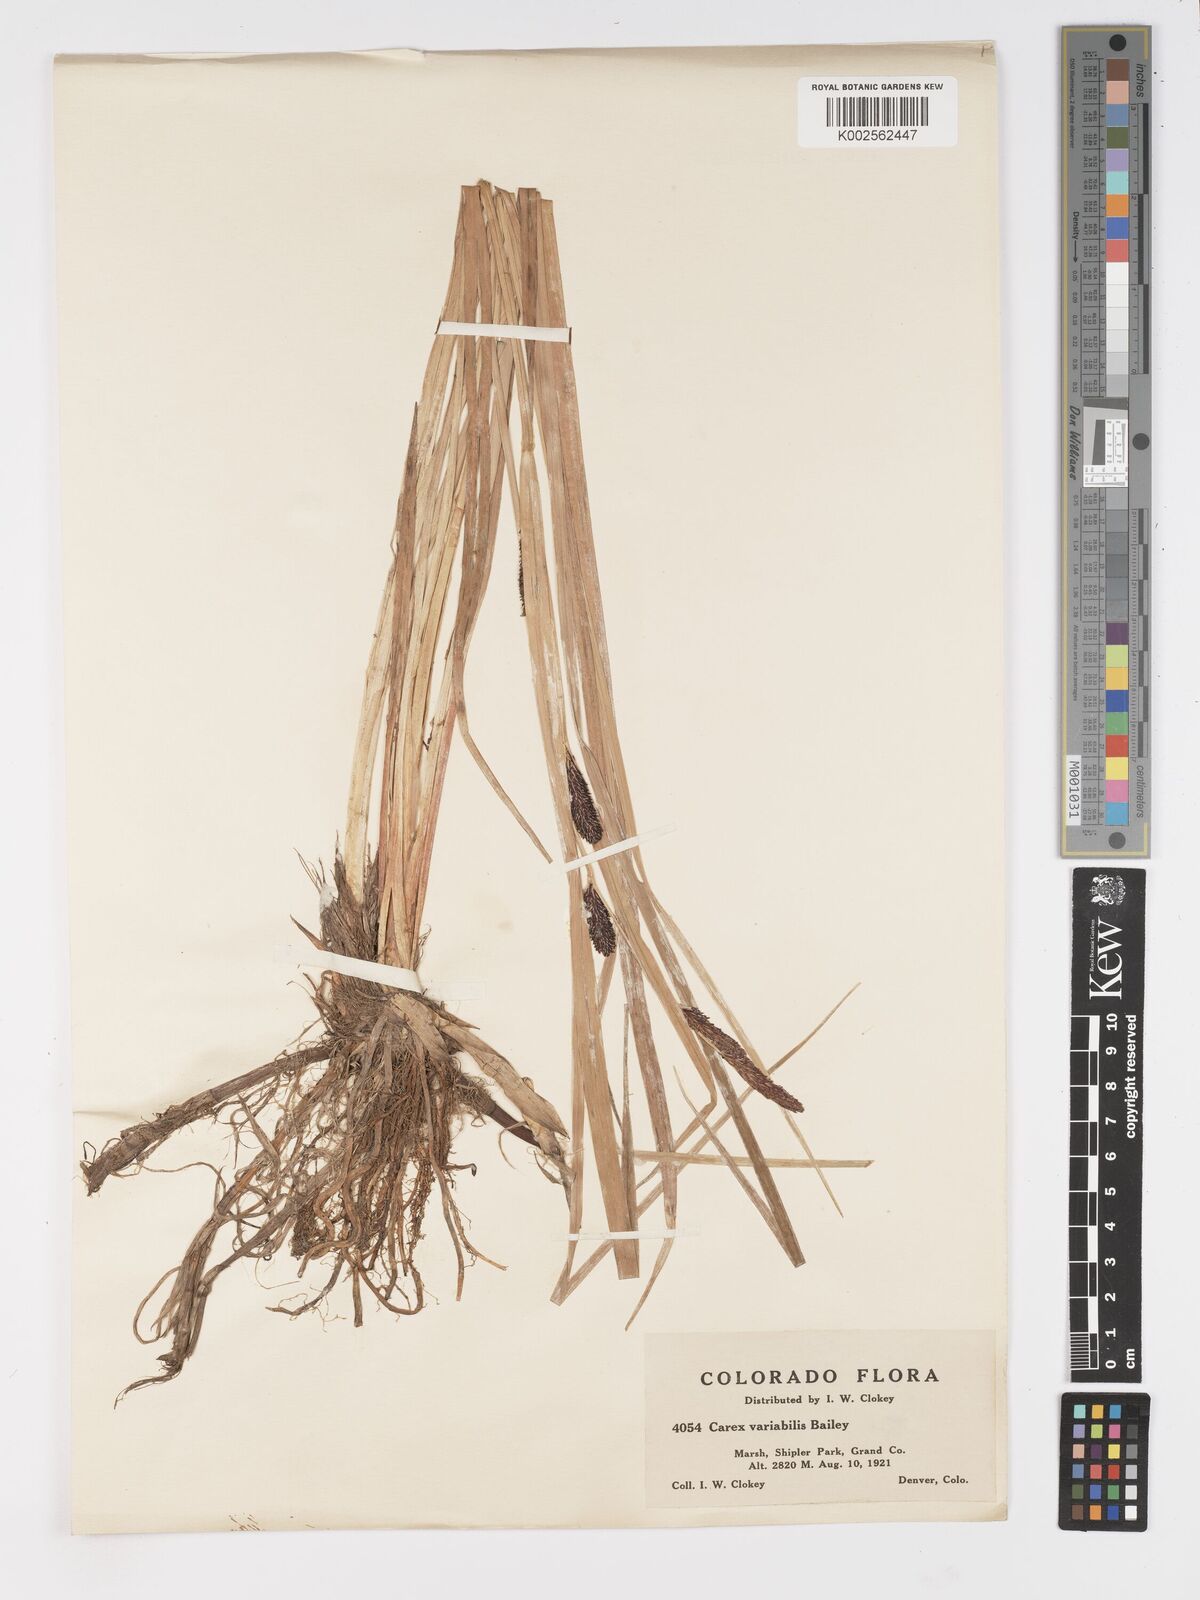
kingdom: Plantae
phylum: Tracheophyta
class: Liliopsida
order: Poales
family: Cyperaceae
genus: Carex
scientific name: Carex
